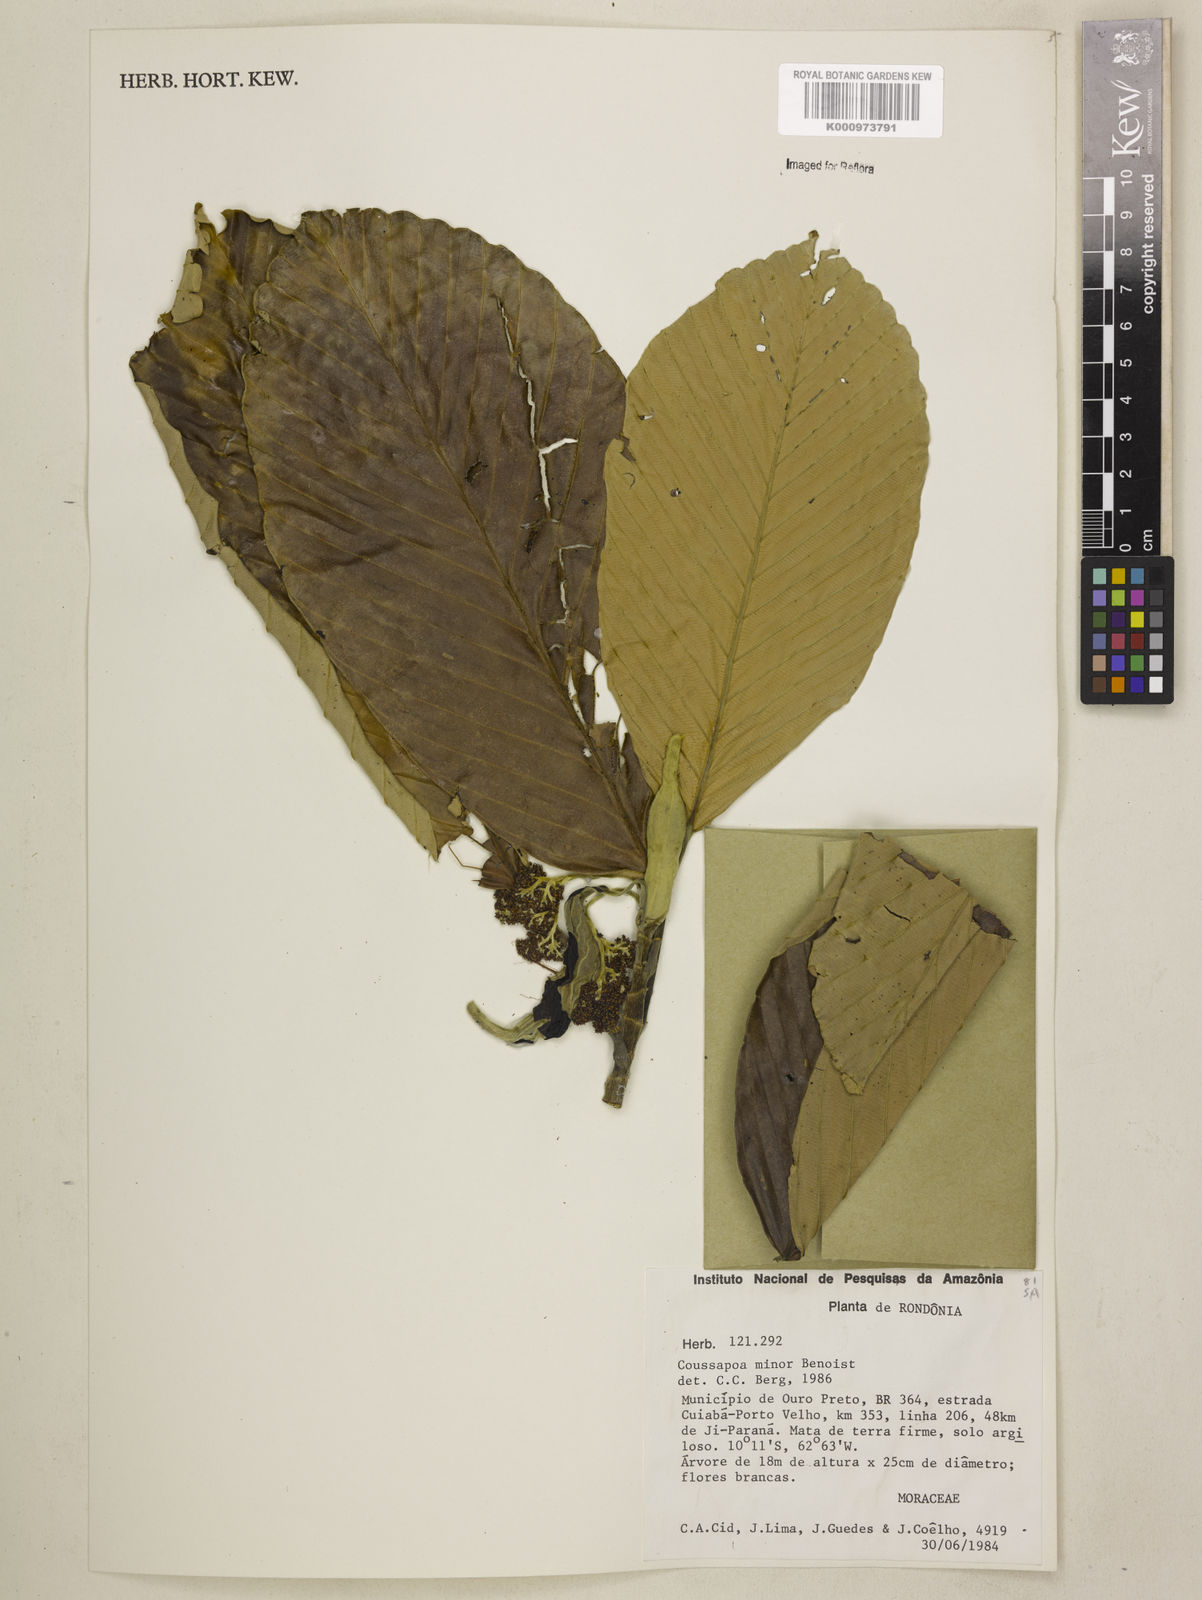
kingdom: Plantae
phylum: Tracheophyta
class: Magnoliopsida
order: Rosales
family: Urticaceae
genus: Coussapoa
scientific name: Coussapoa
